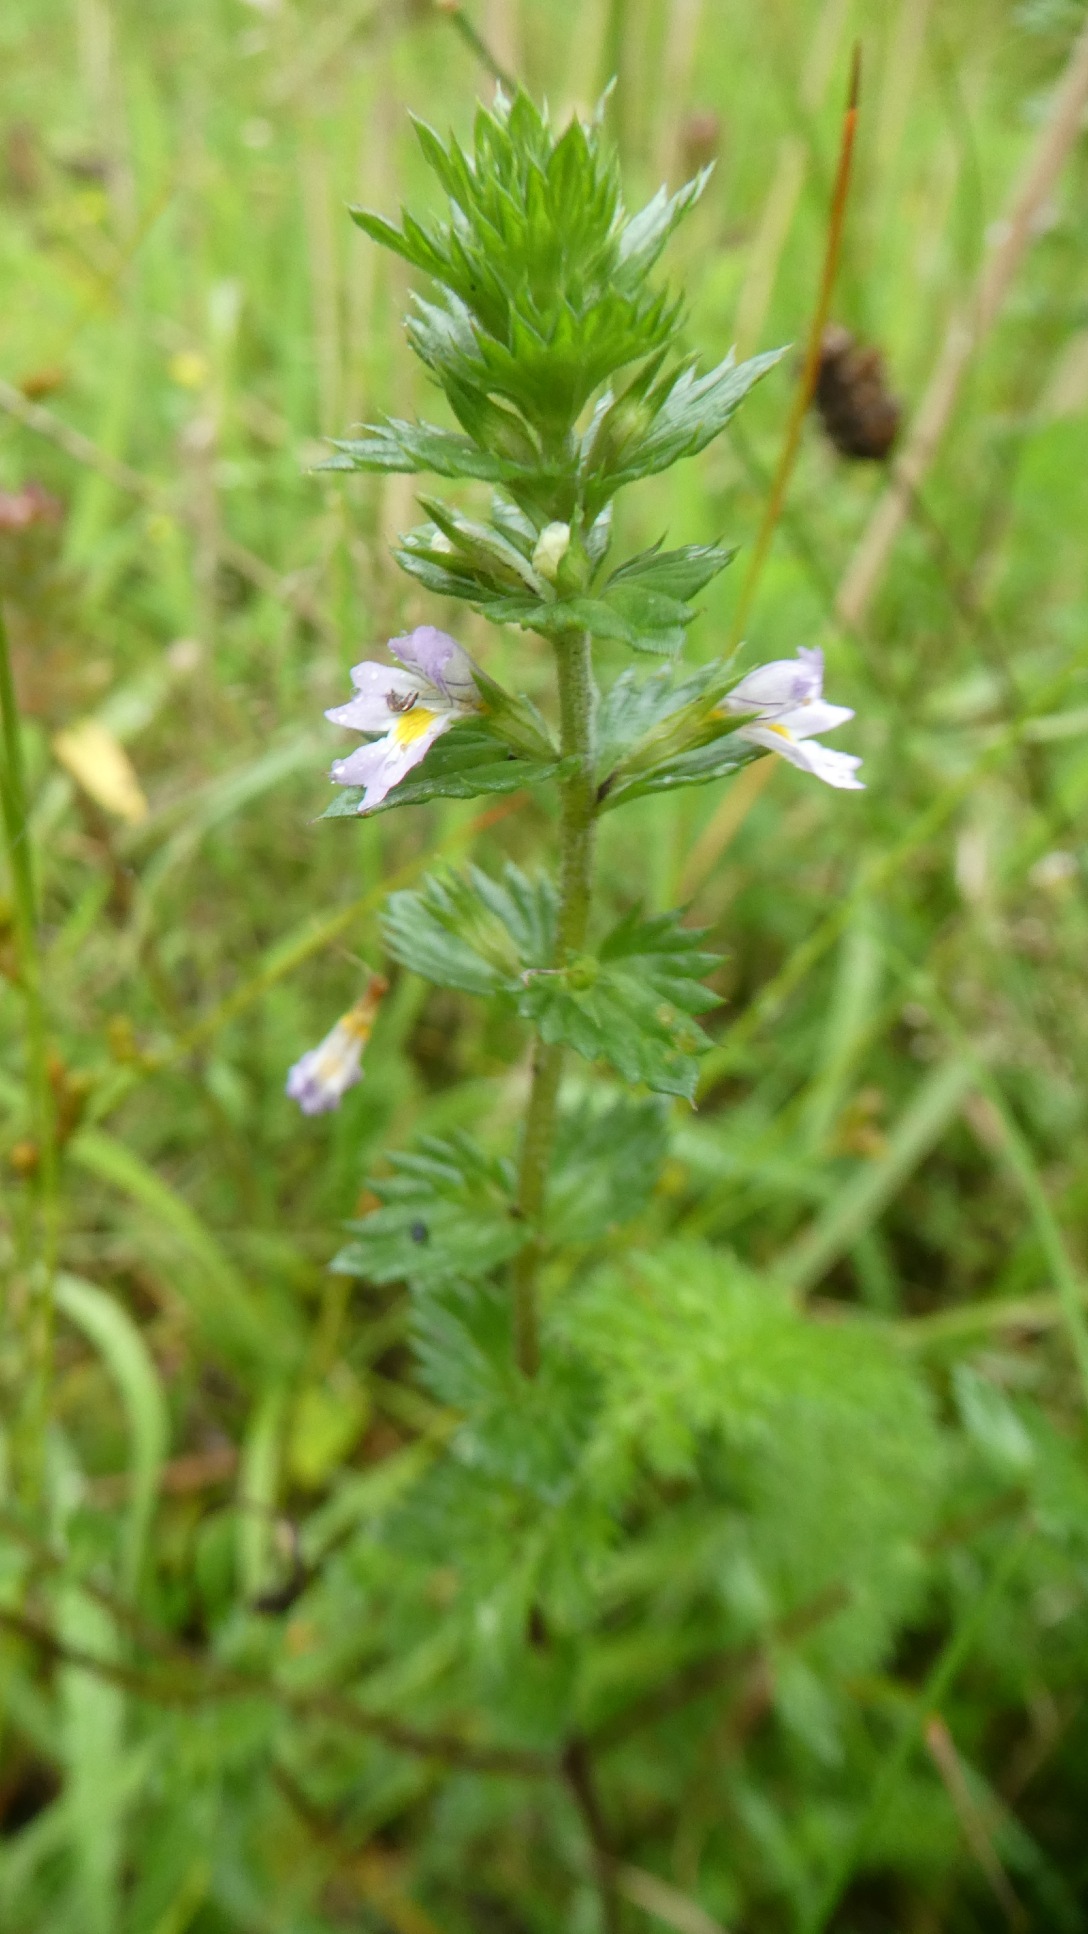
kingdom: Plantae
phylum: Tracheophyta
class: Magnoliopsida
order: Lamiales
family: Orobanchaceae
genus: Euphrasia
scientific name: Euphrasia stricta
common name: Spids øjentrøst
